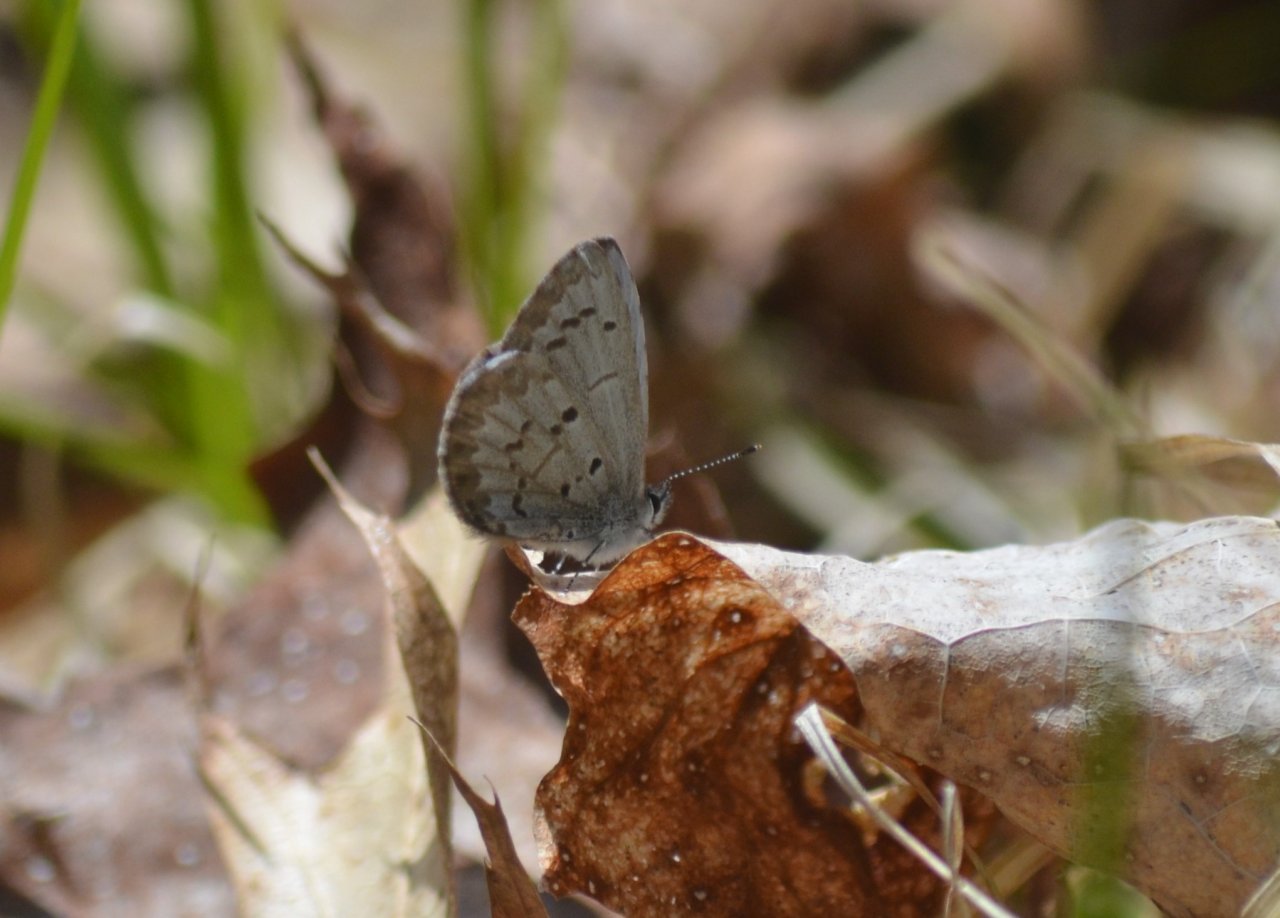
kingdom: Animalia
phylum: Arthropoda
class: Insecta
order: Lepidoptera
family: Lycaenidae
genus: Celastrina
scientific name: Celastrina lucia
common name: Northern Spring Azure
